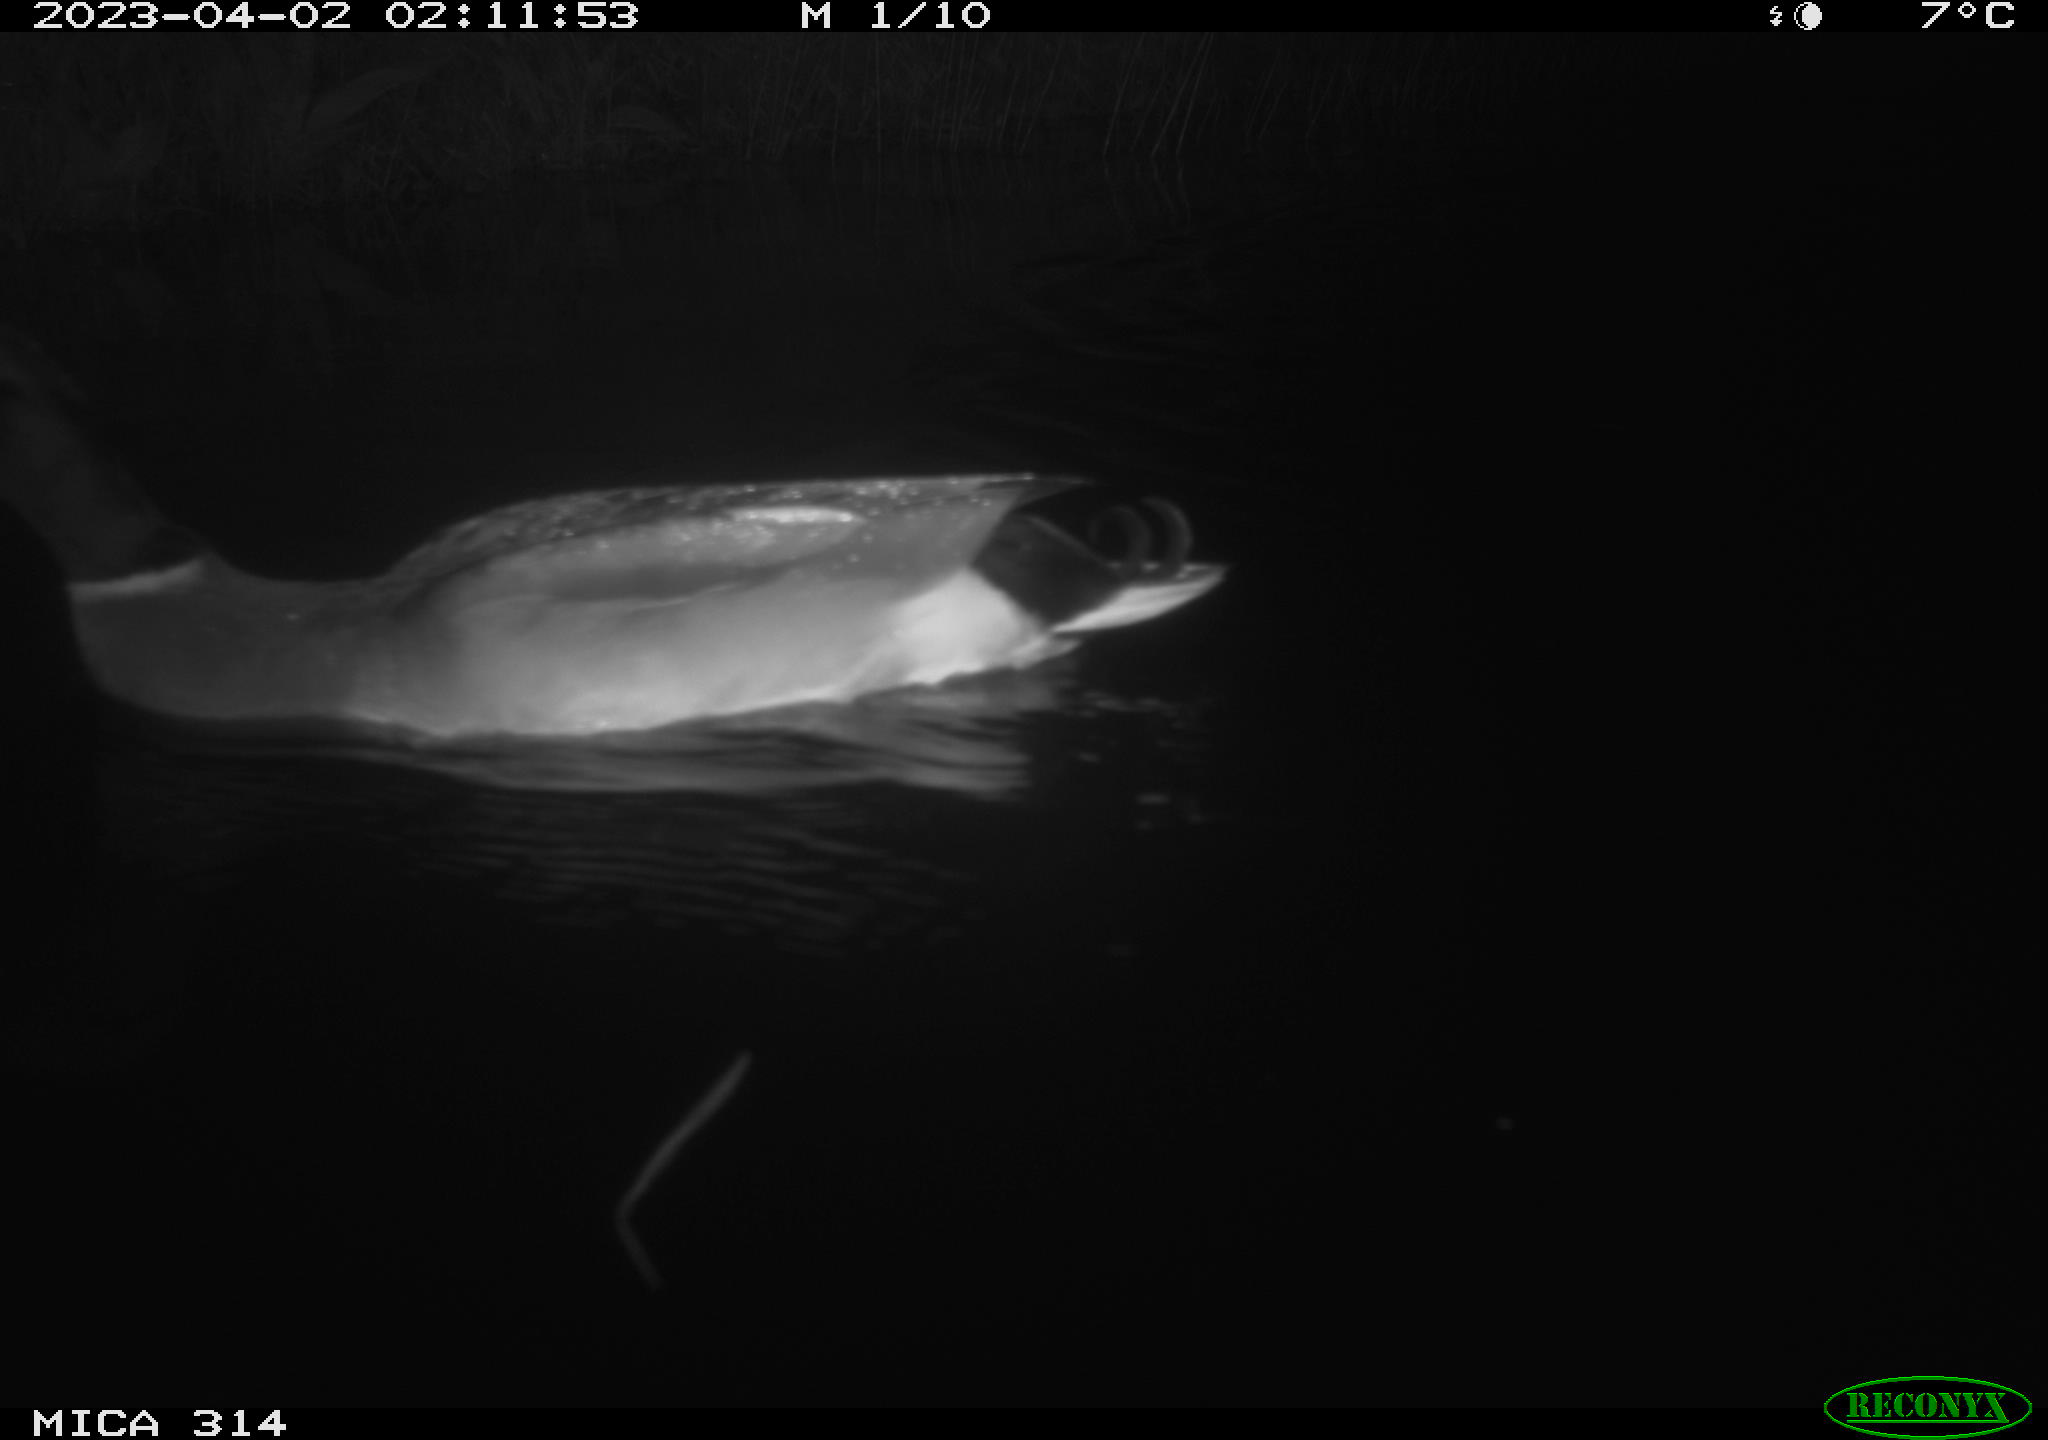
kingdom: Animalia
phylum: Chordata
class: Aves
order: Anseriformes
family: Anatidae
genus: Anas
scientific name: Anas
